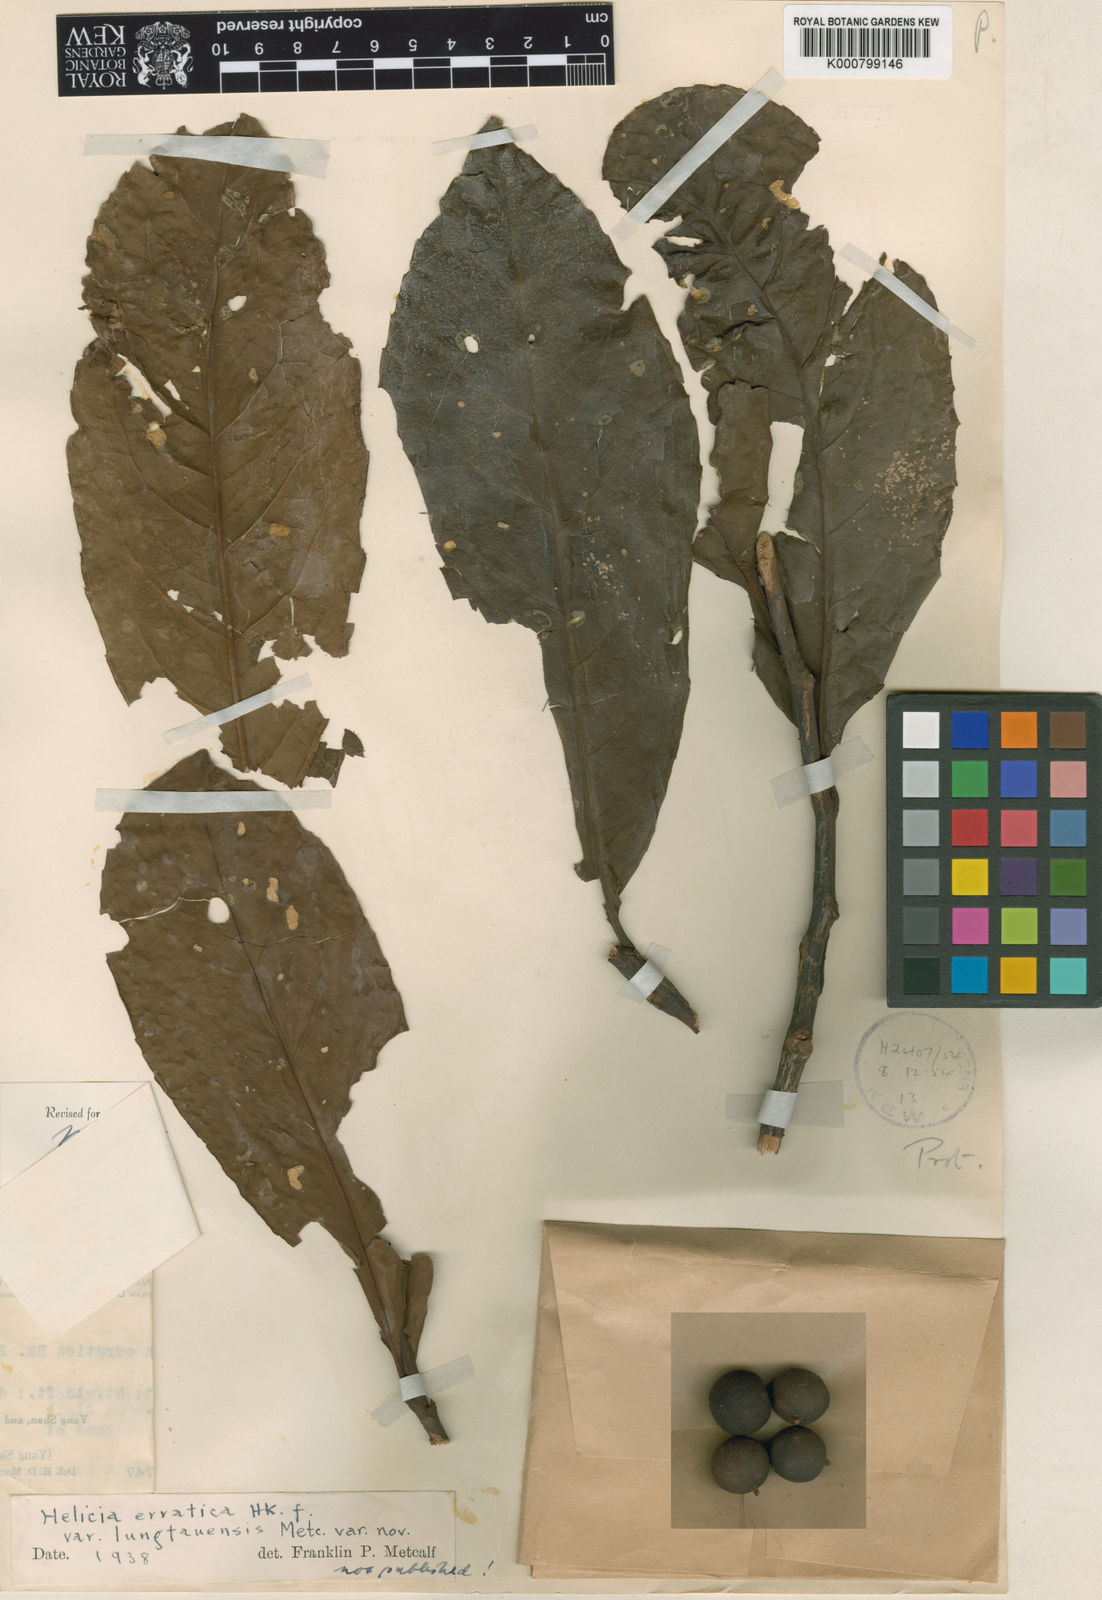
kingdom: Plantae
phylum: Tracheophyta
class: Magnoliopsida
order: Proteales
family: Proteaceae
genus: Helicia
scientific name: Helicia cochinchinensis
